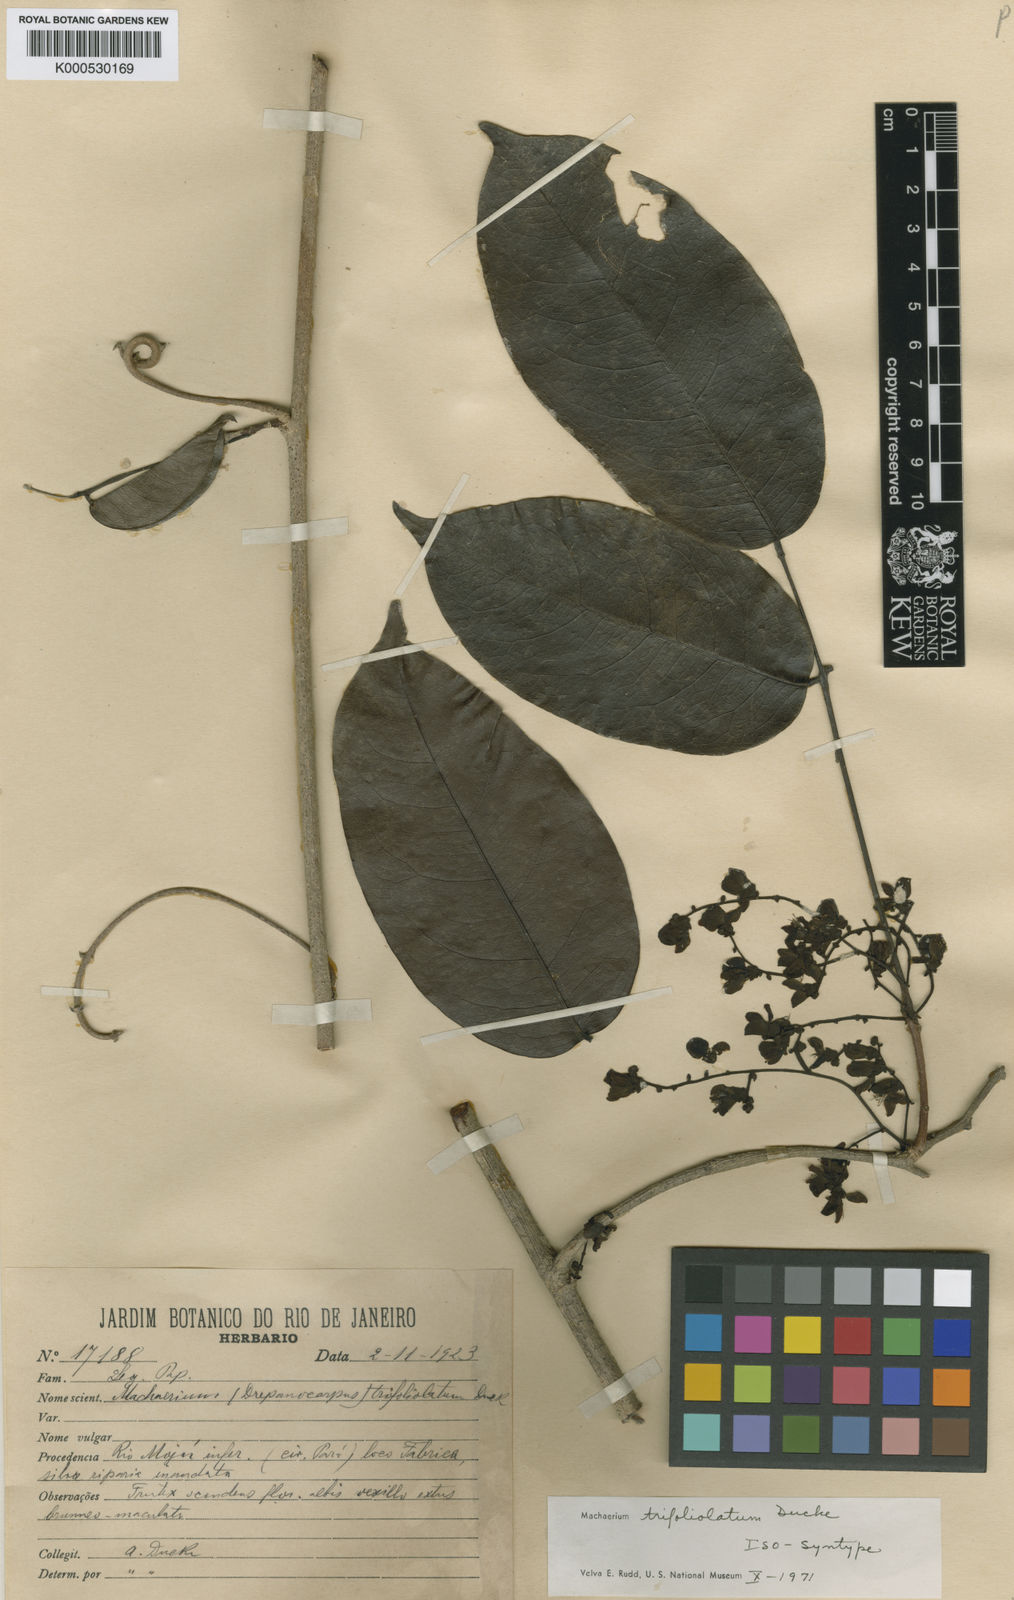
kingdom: Plantae
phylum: Tracheophyta
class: Magnoliopsida
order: Fabales
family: Fabaceae
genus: Machaerium
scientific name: Machaerium trifoliolatum
